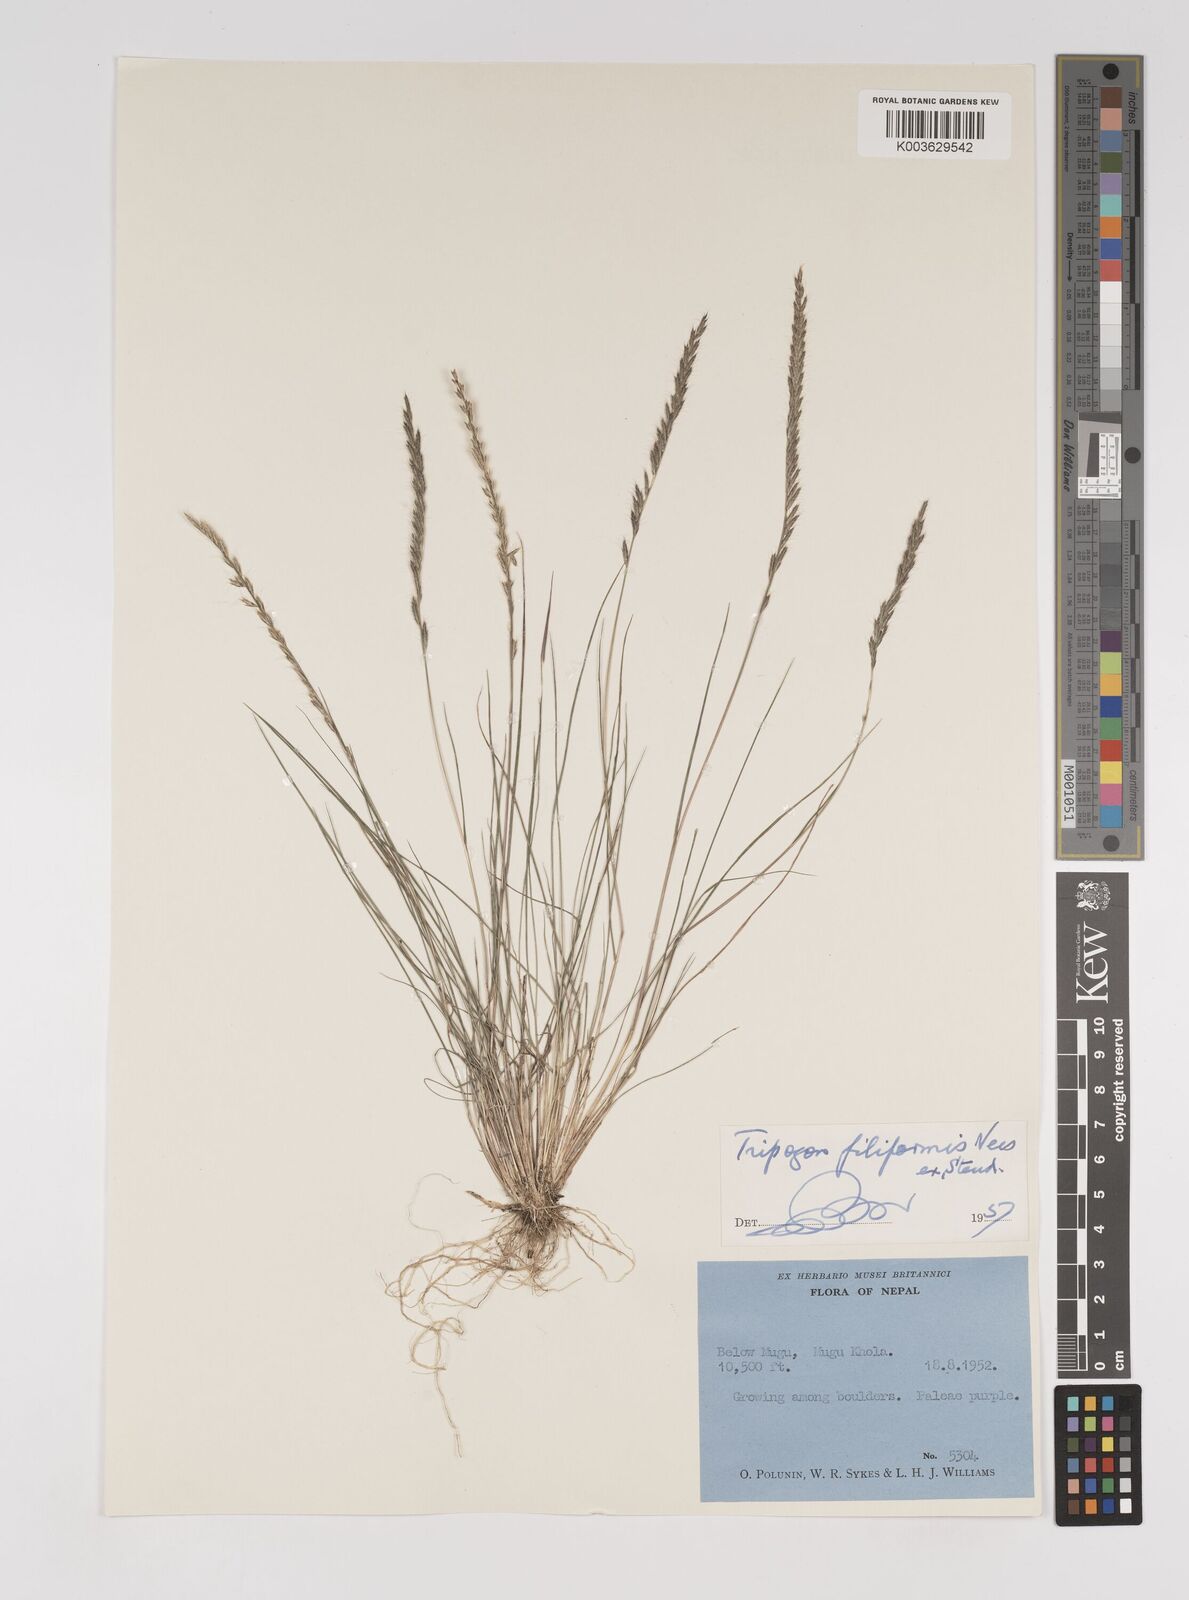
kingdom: Plantae
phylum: Tracheophyta
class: Liliopsida
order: Poales
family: Poaceae
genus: Tripogon
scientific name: Tripogon filiformis
